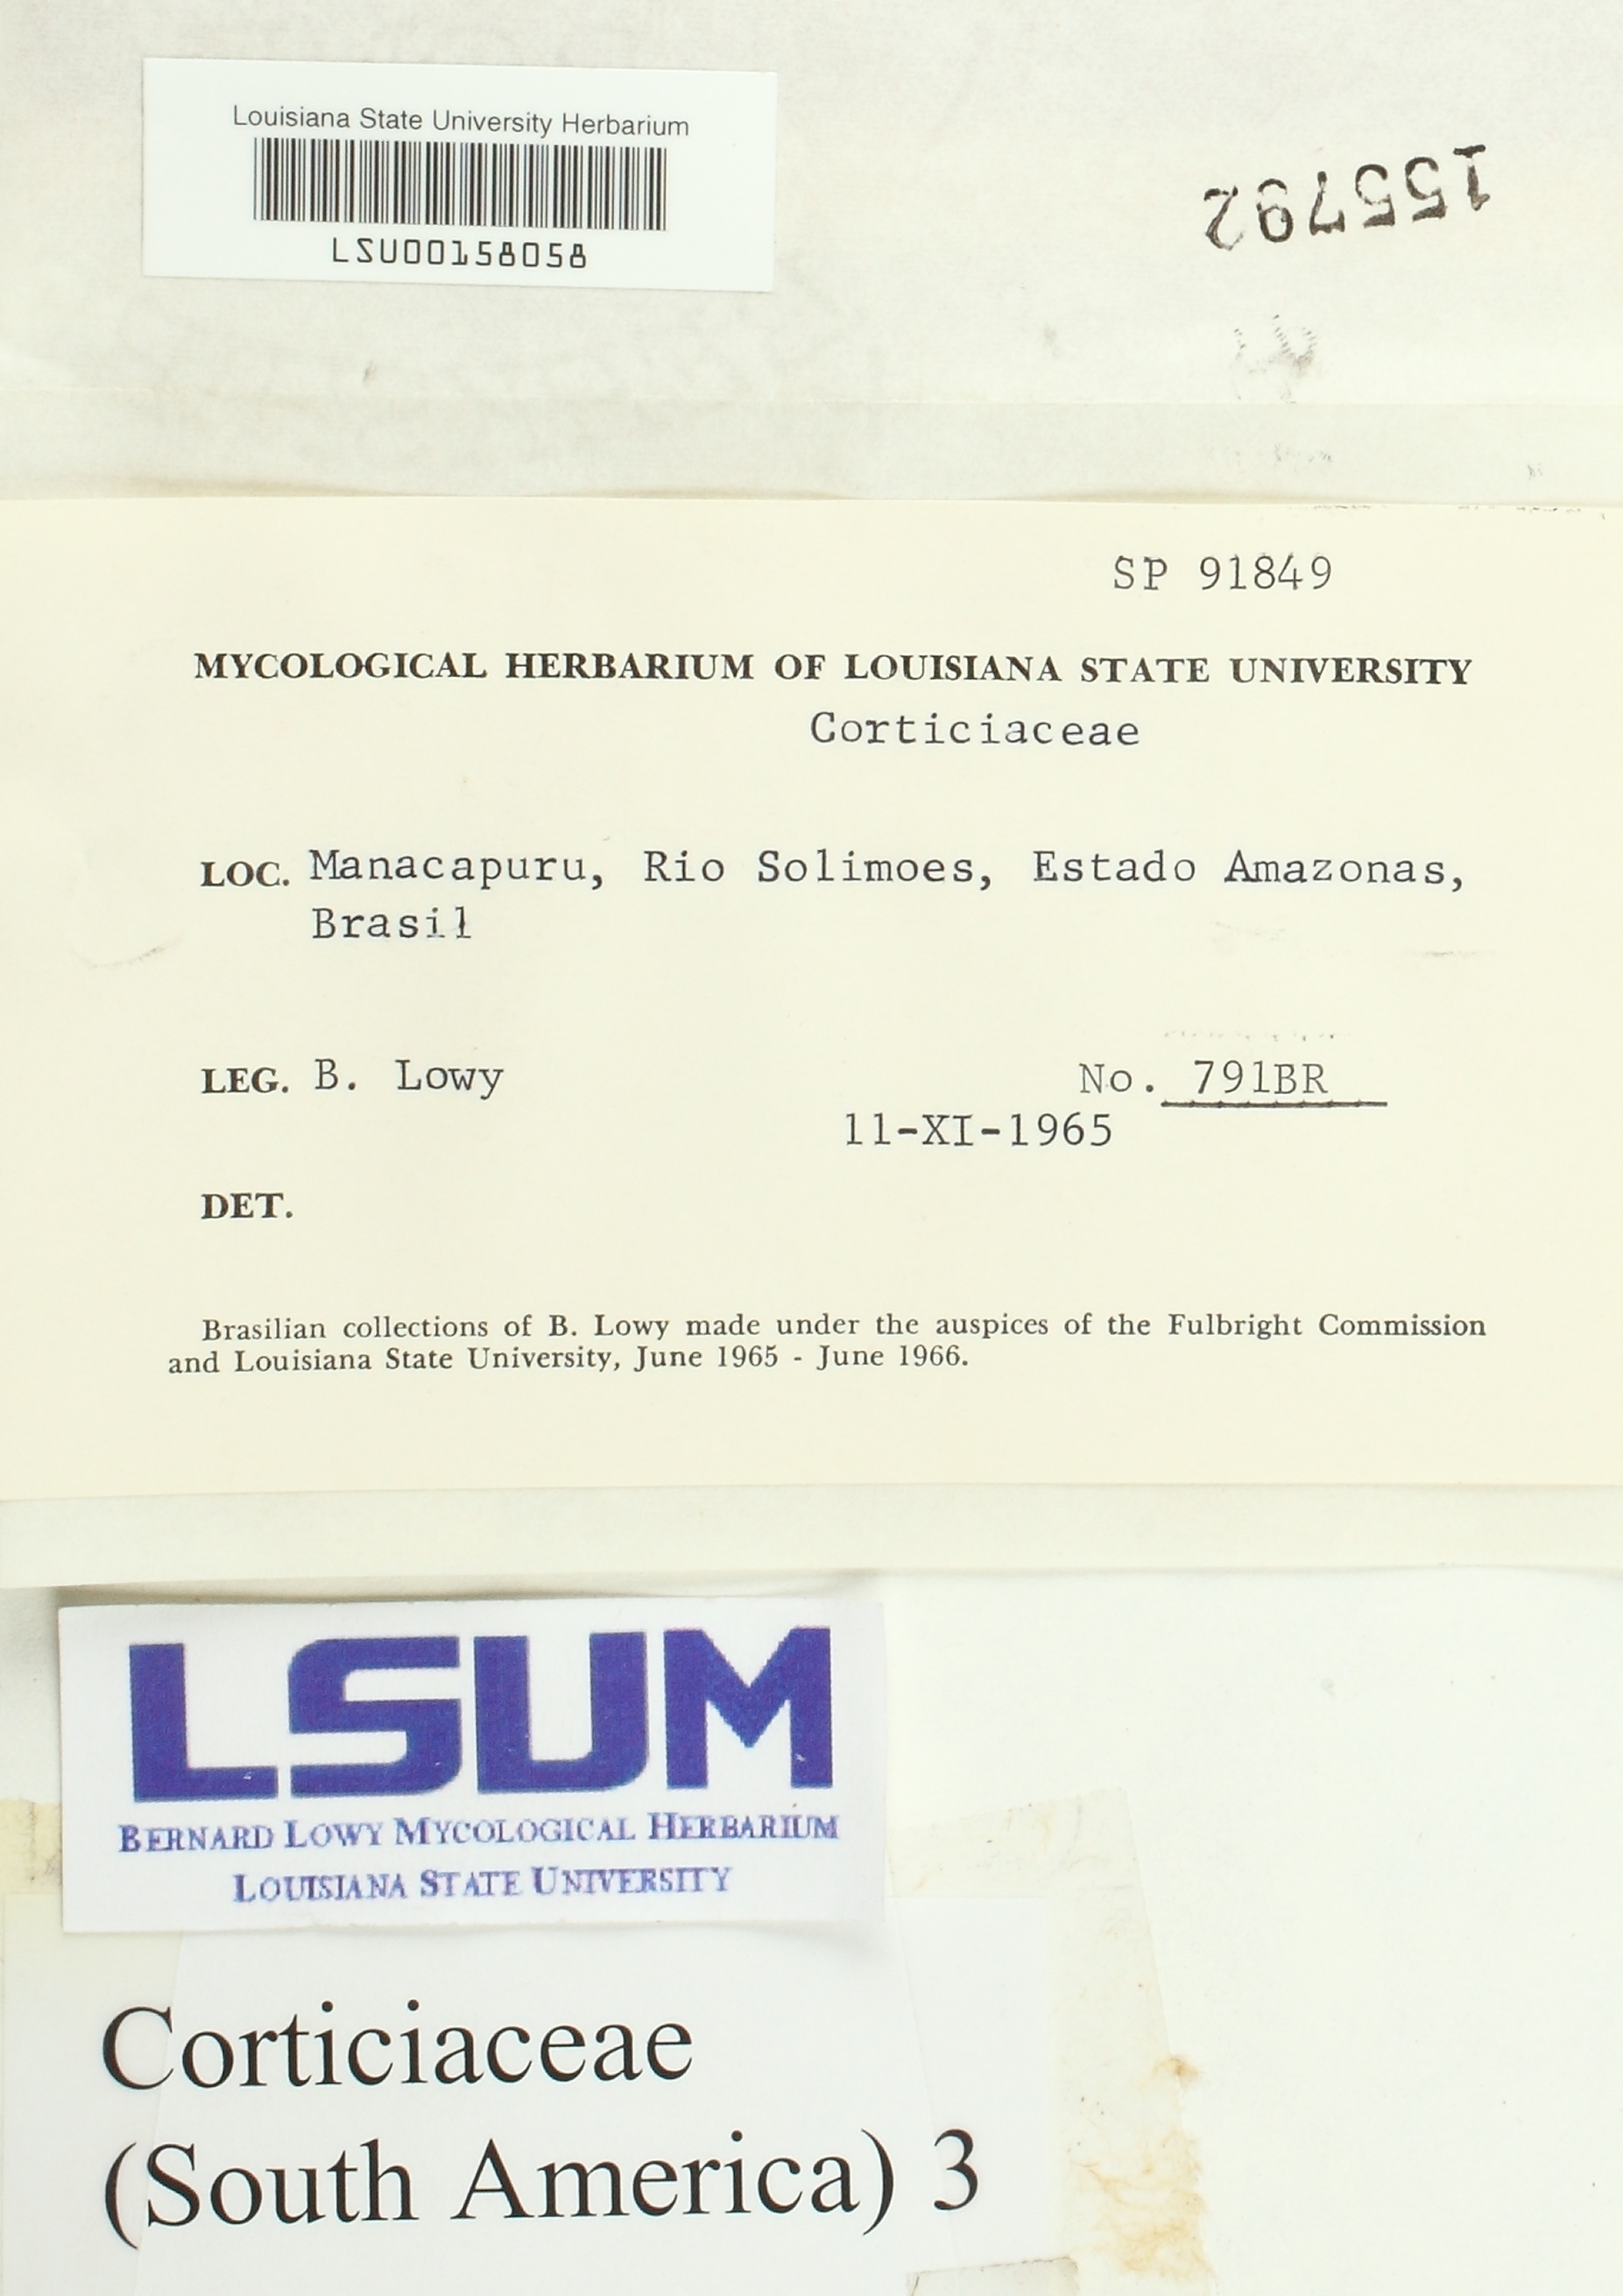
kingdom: Fungi
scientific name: Fungi
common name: Fungi
